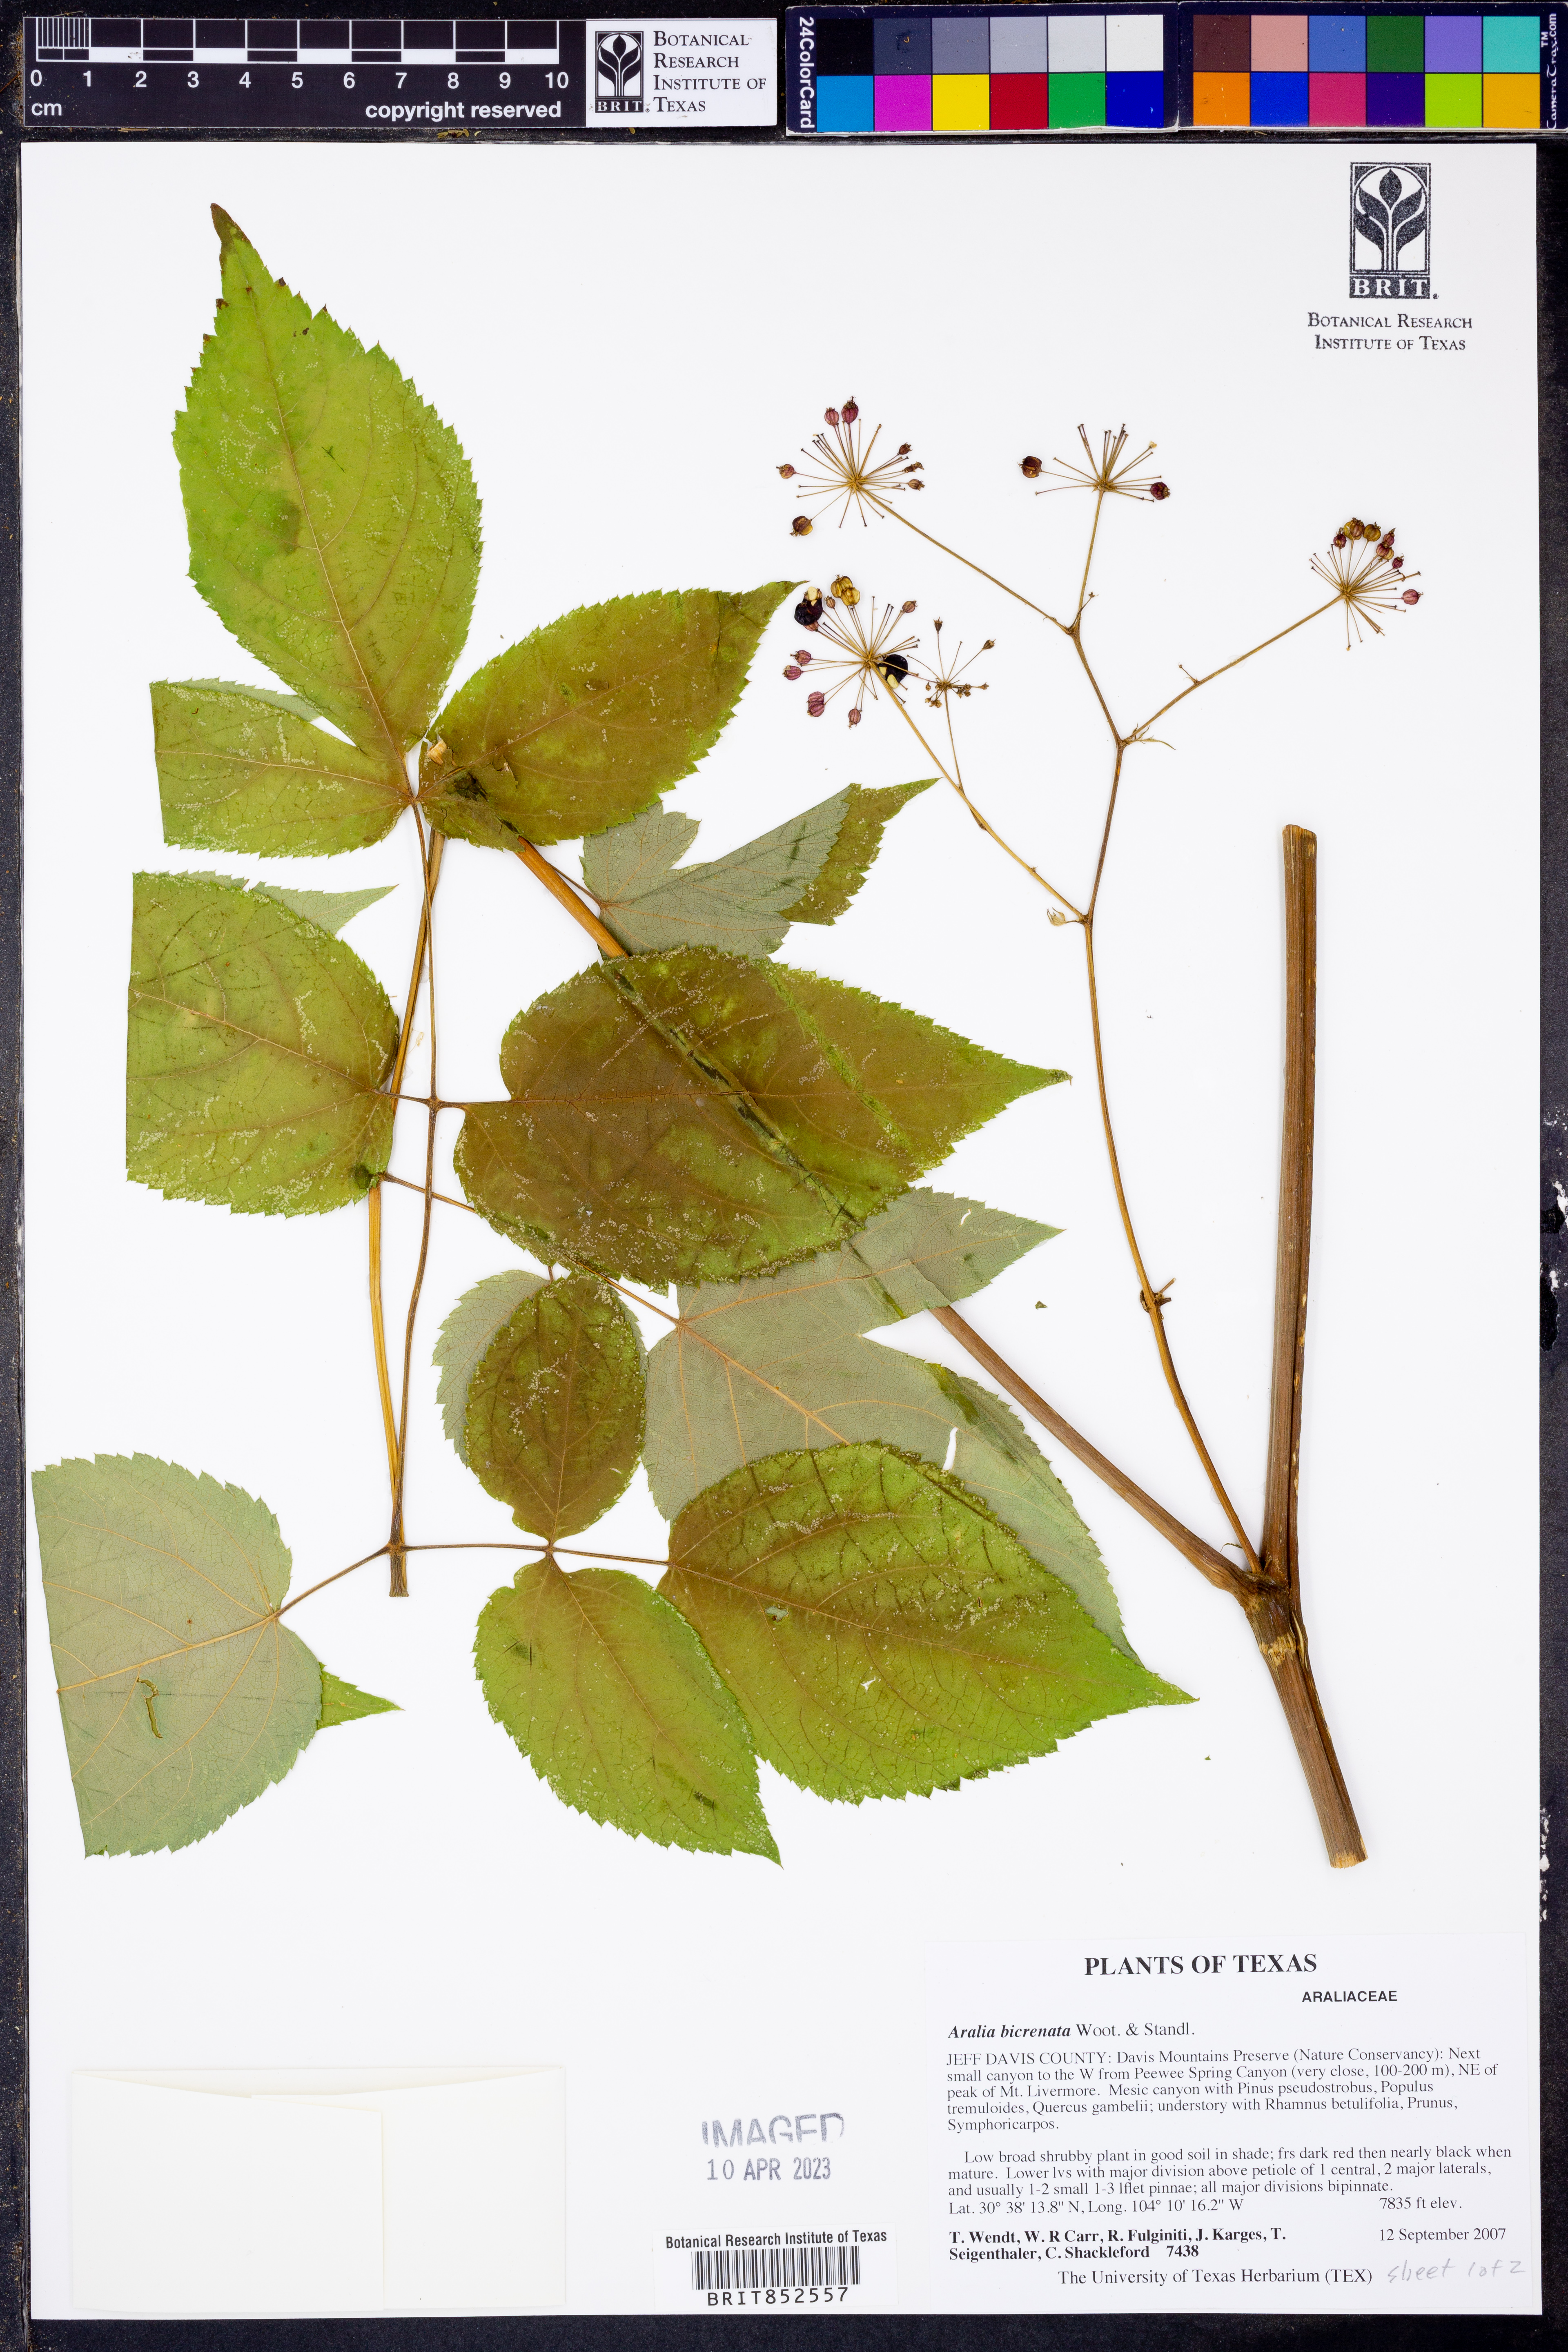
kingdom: Plantae
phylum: Tracheophyta
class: Magnoliopsida
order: Apiales
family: Araliaceae
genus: Aralia
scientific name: Aralia bicrenata
